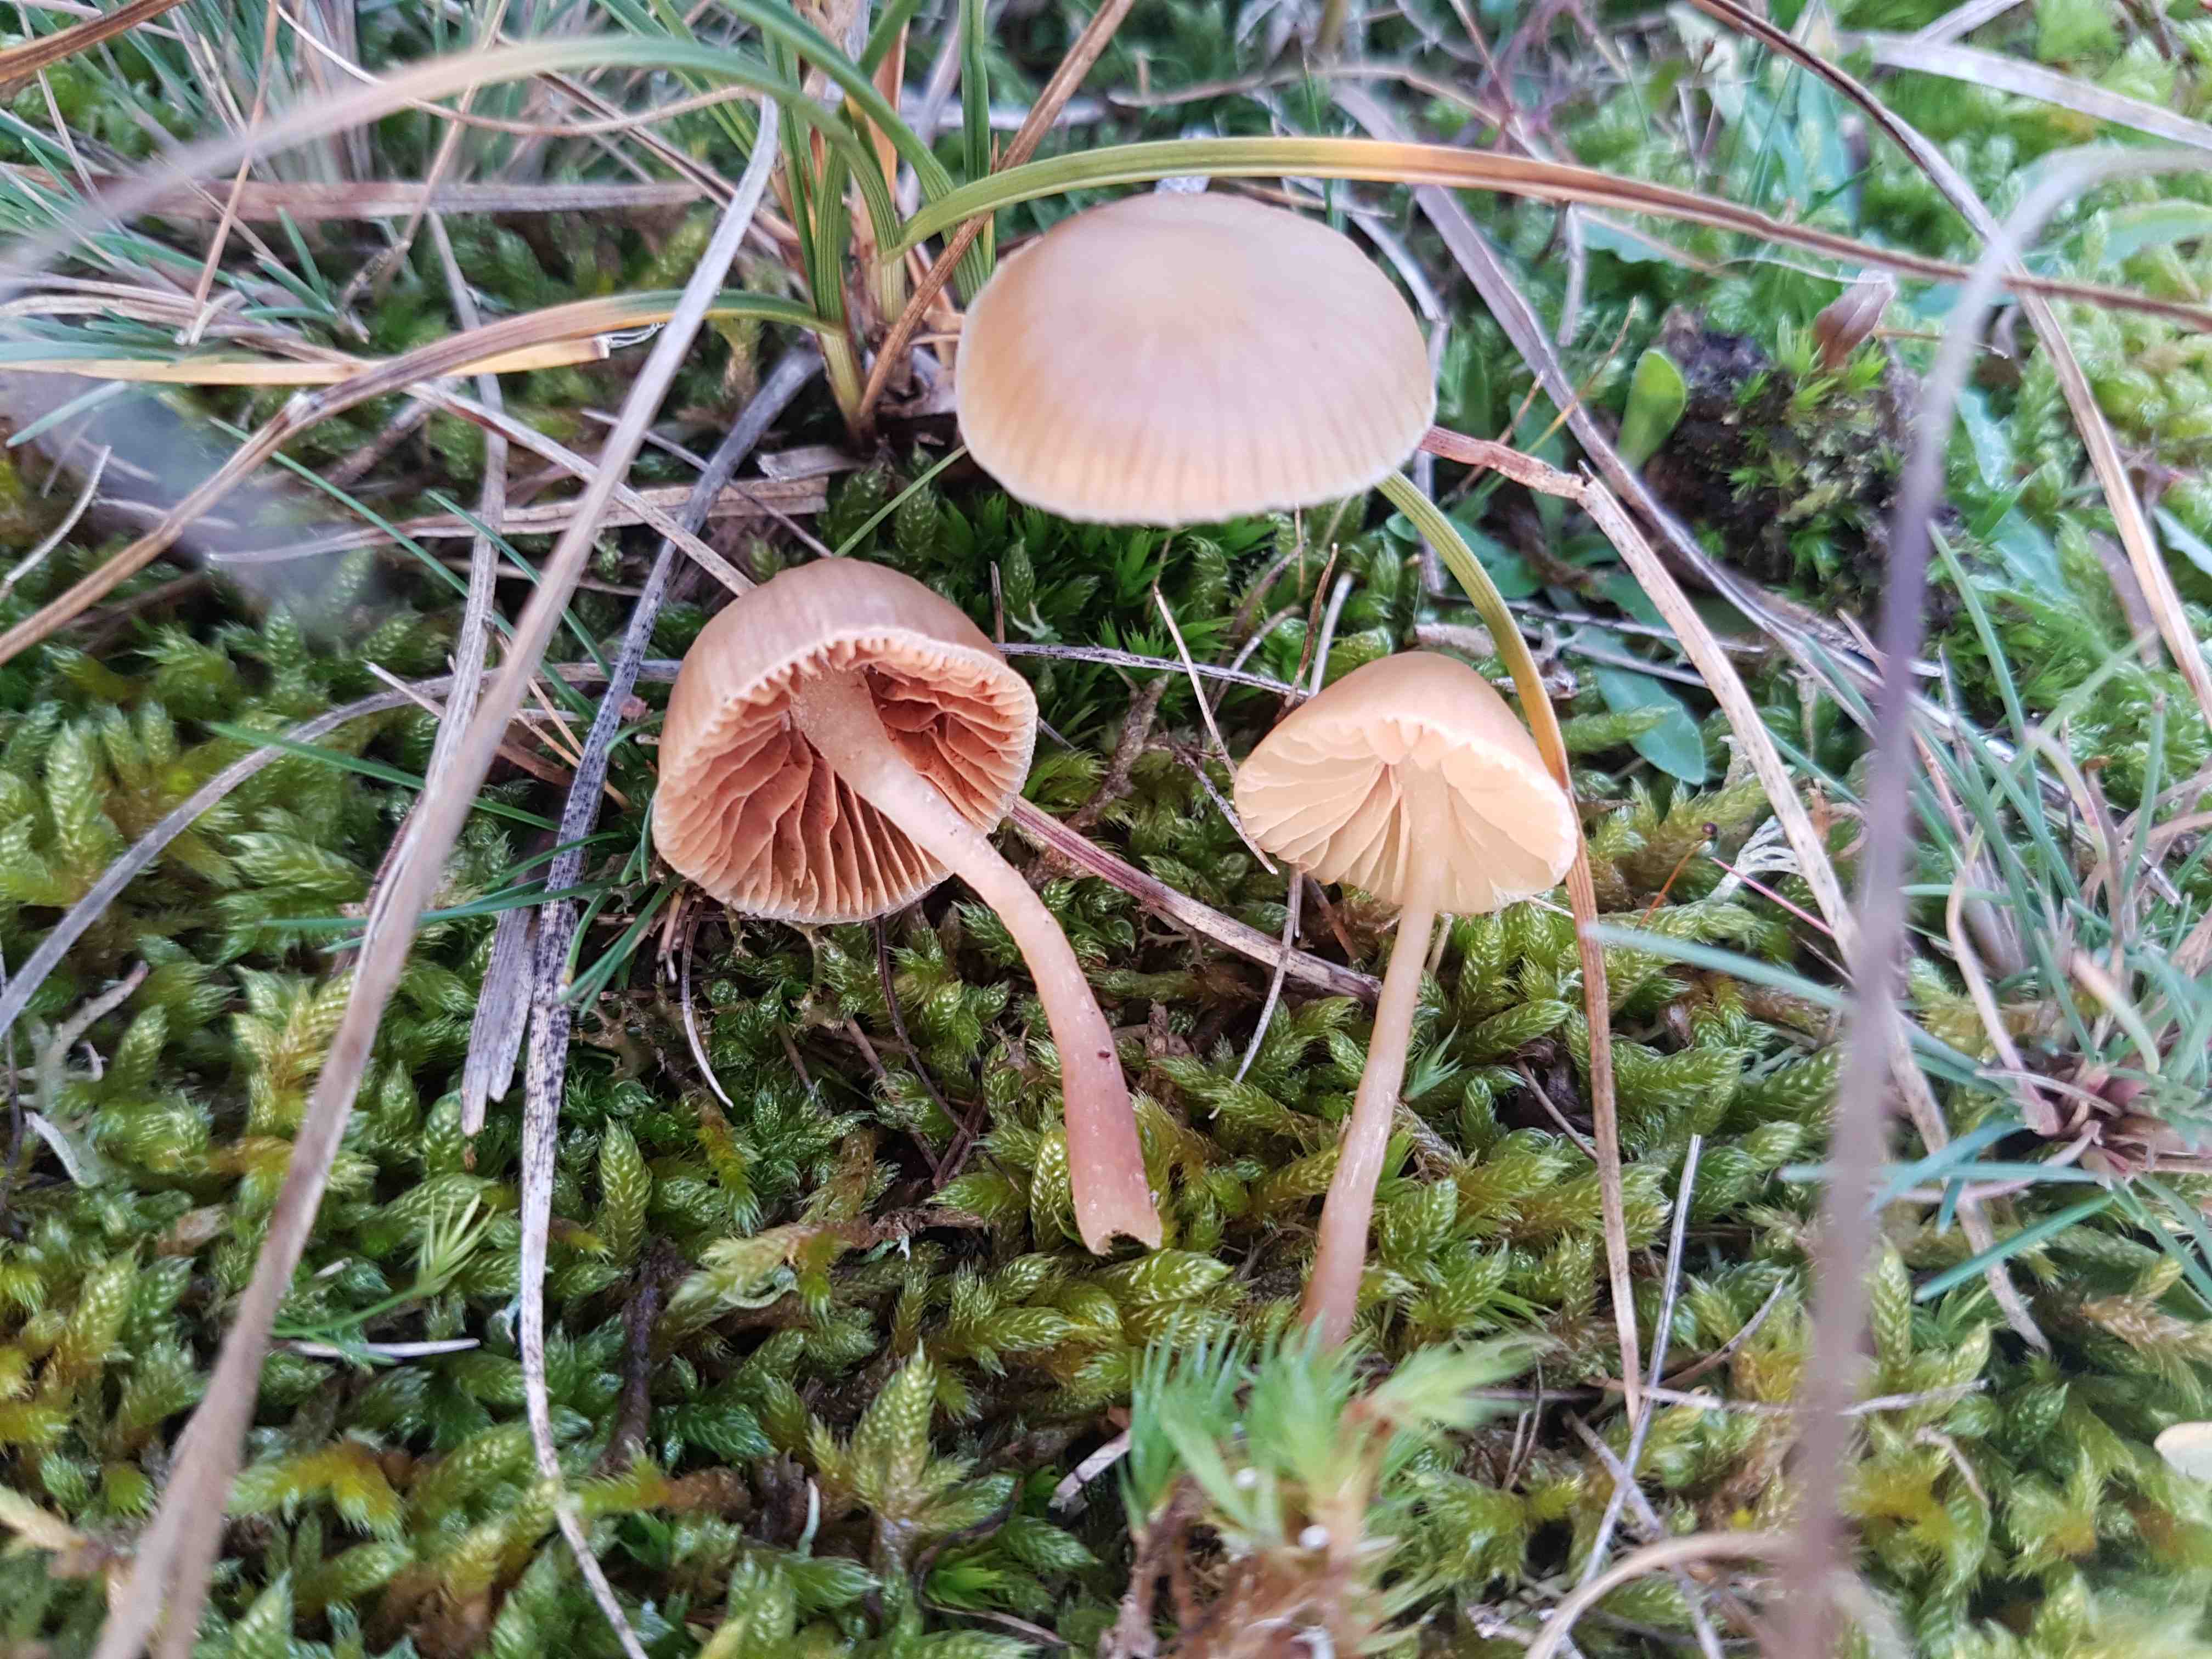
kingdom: Fungi
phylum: Basidiomycota
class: Agaricomycetes
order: Agaricales
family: Hymenogastraceae
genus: Galerina
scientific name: Galerina
